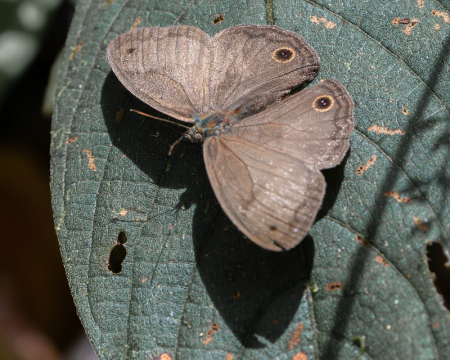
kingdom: Animalia
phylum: Arthropoda
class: Insecta
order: Lepidoptera
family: Nymphalidae
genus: Graphita
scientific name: Graphita griphe
